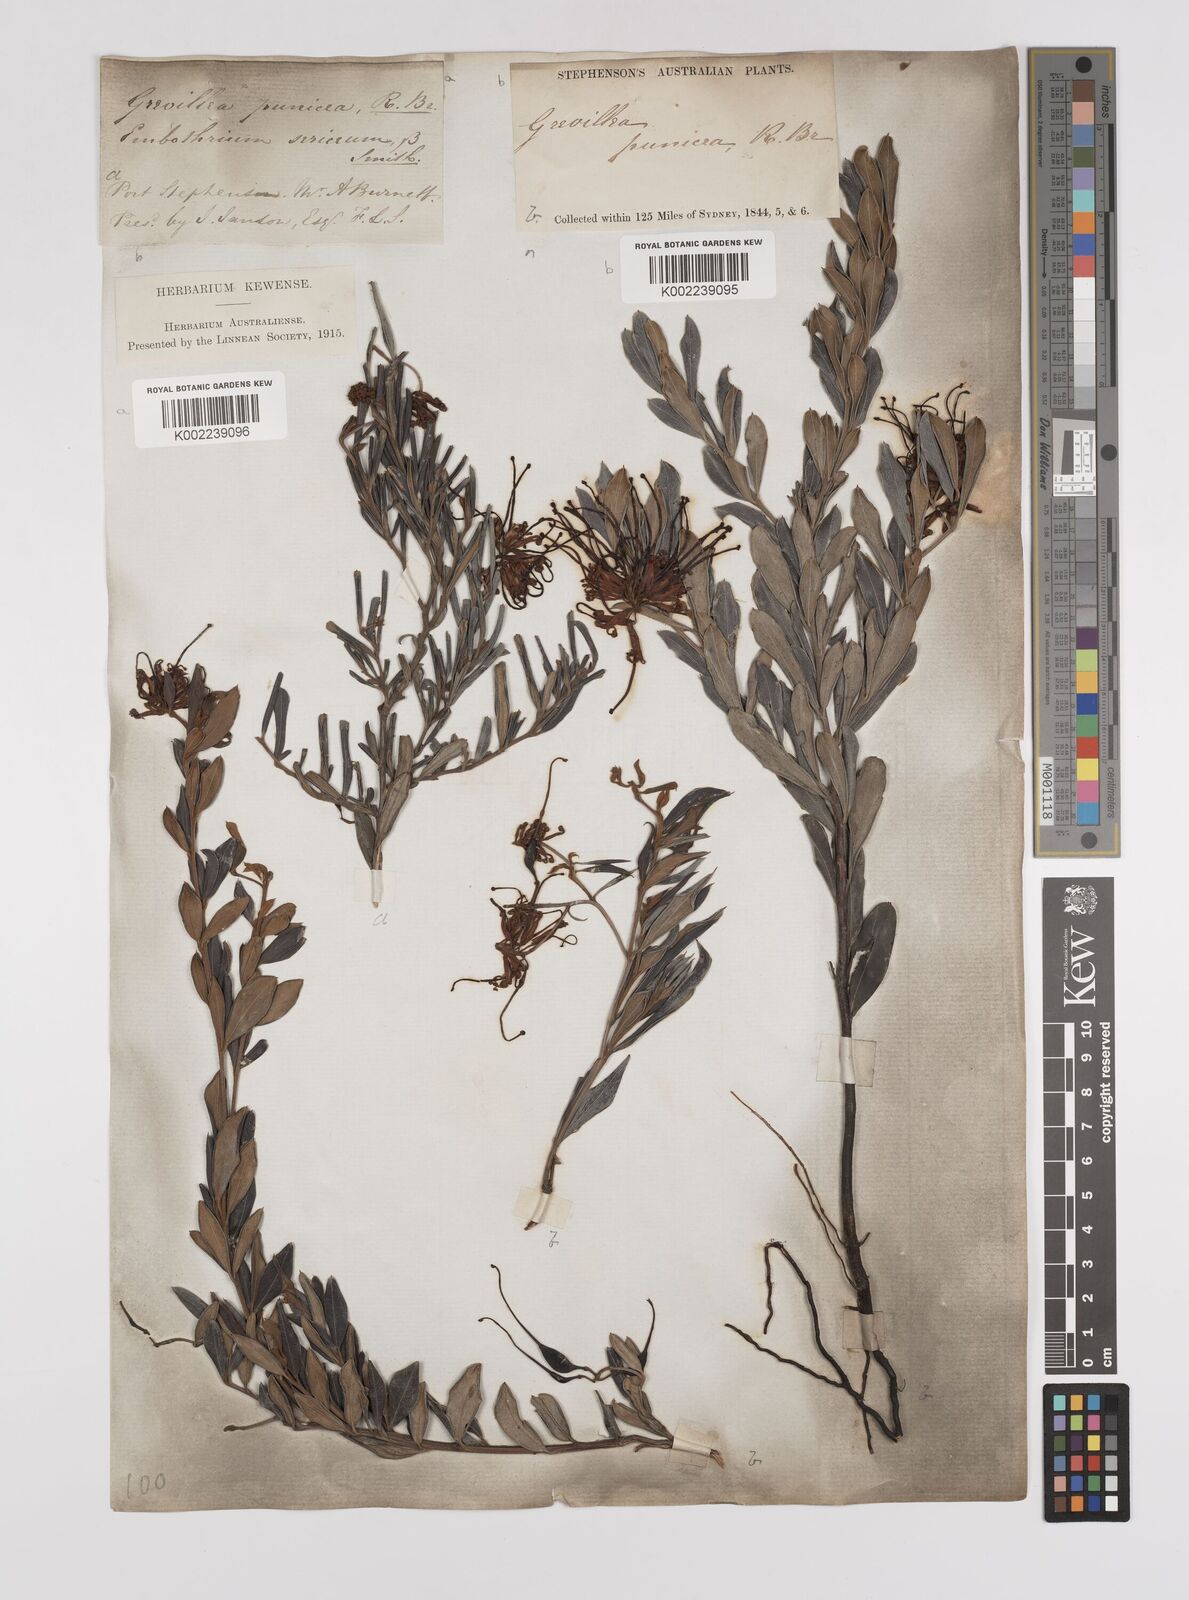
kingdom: Plantae
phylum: Tracheophyta
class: Magnoliopsida
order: Proteales
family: Proteaceae
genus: Grevillea
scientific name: Grevillea speciosa
